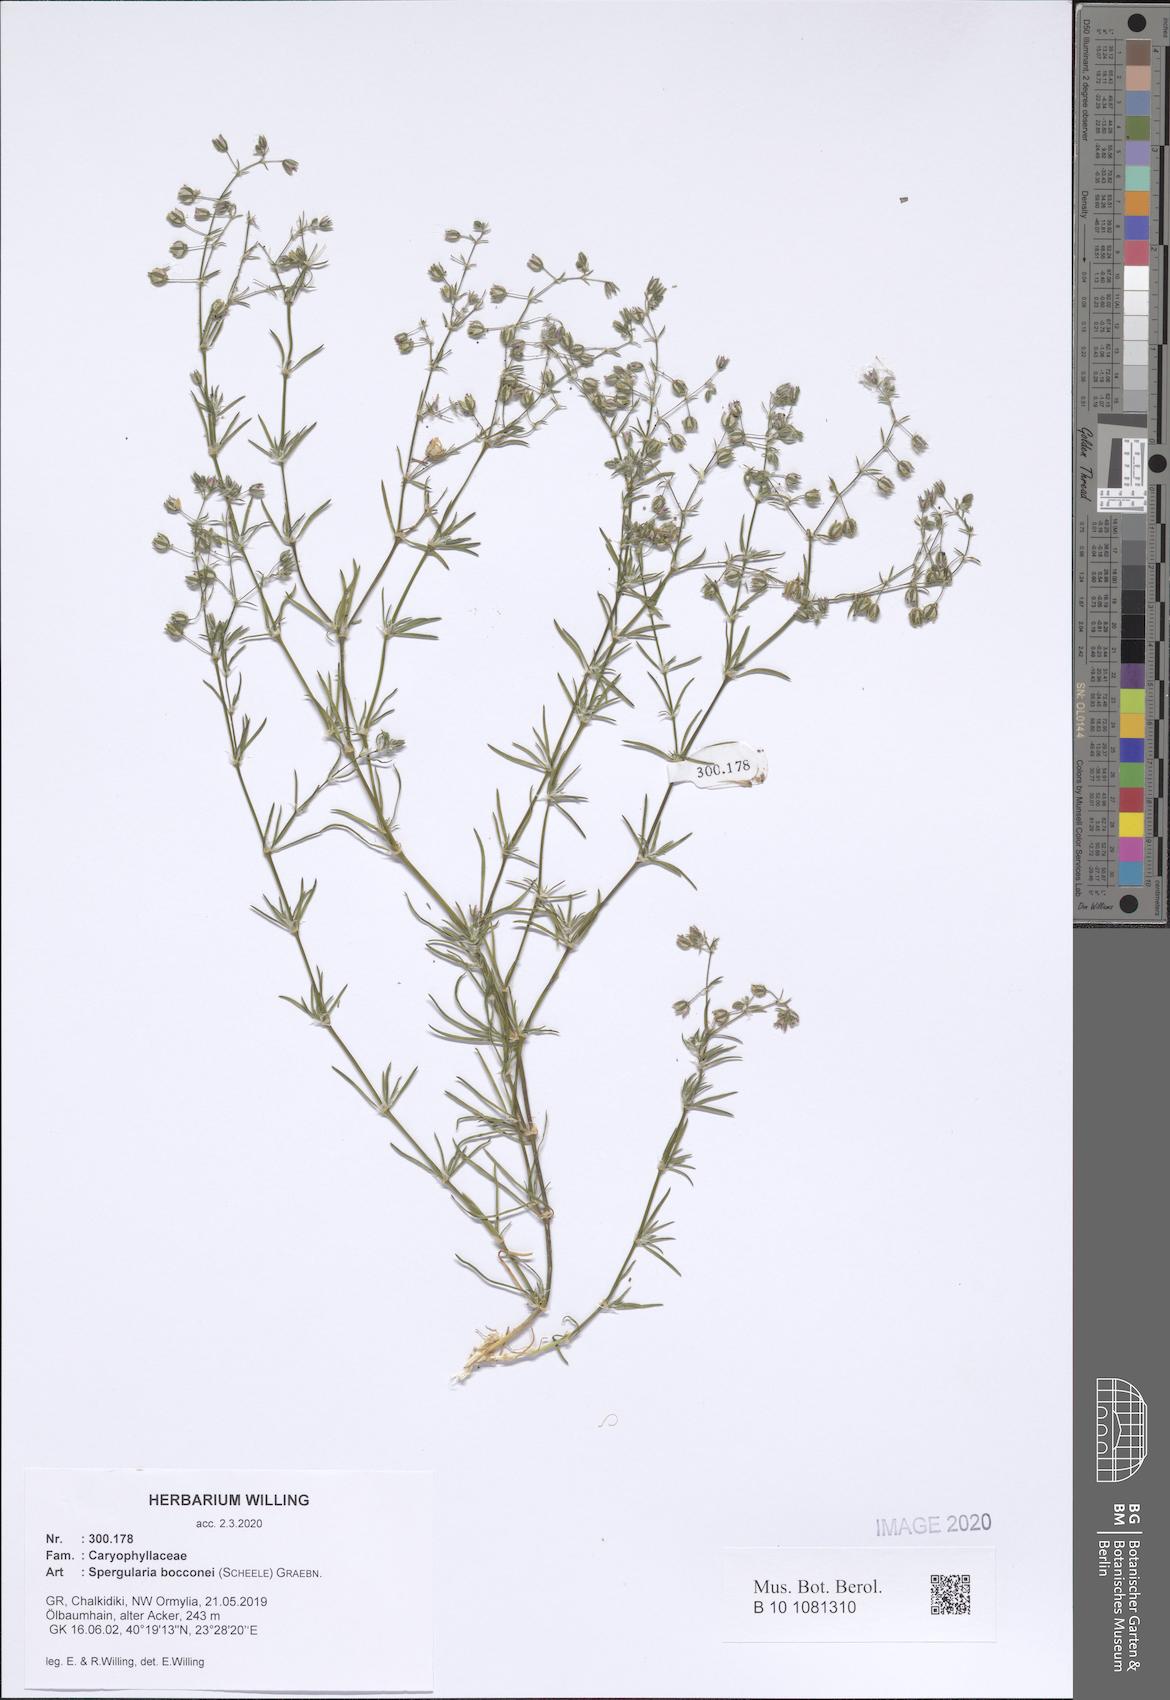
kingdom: Plantae
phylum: Tracheophyta
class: Magnoliopsida
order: Caryophyllales
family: Caryophyllaceae
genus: Spergularia
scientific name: Spergularia bocconei
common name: Greek sea-spurrey
